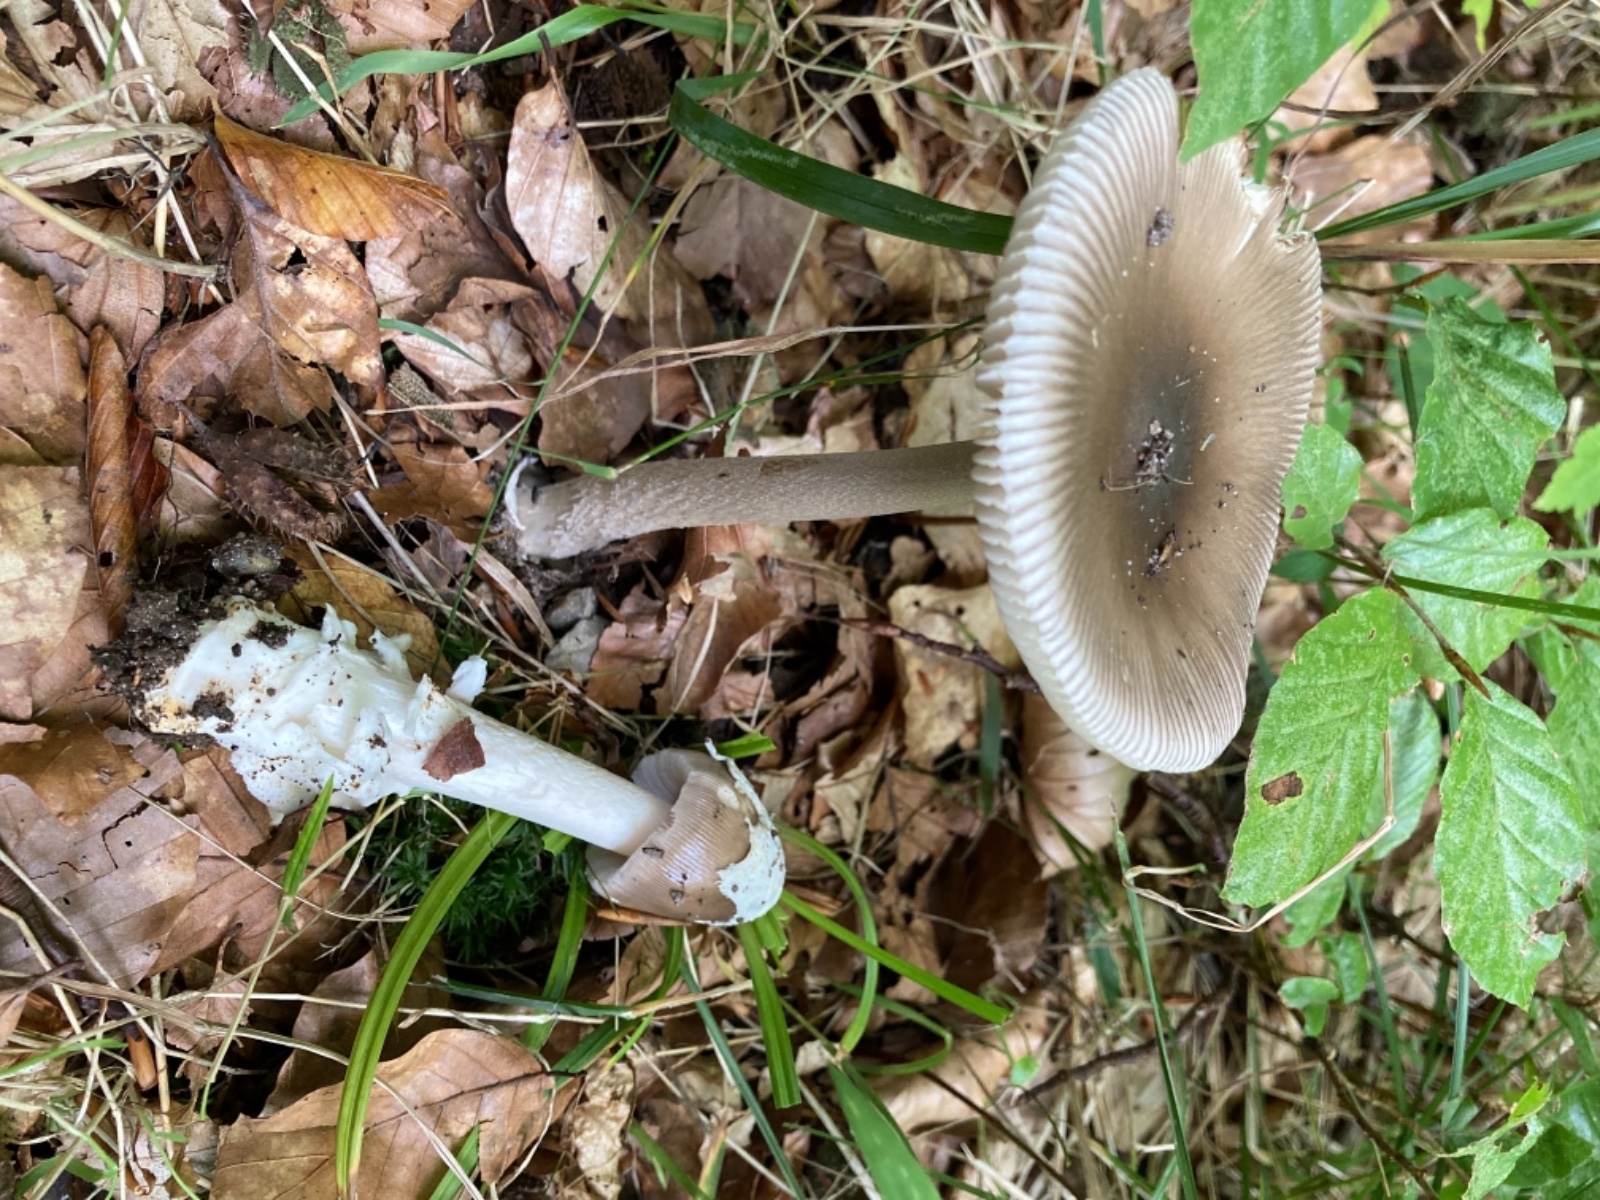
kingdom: Fungi
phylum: Basidiomycota
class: Agaricomycetes
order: Agaricales
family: Amanitaceae
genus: Amanita
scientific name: Amanita coryli
